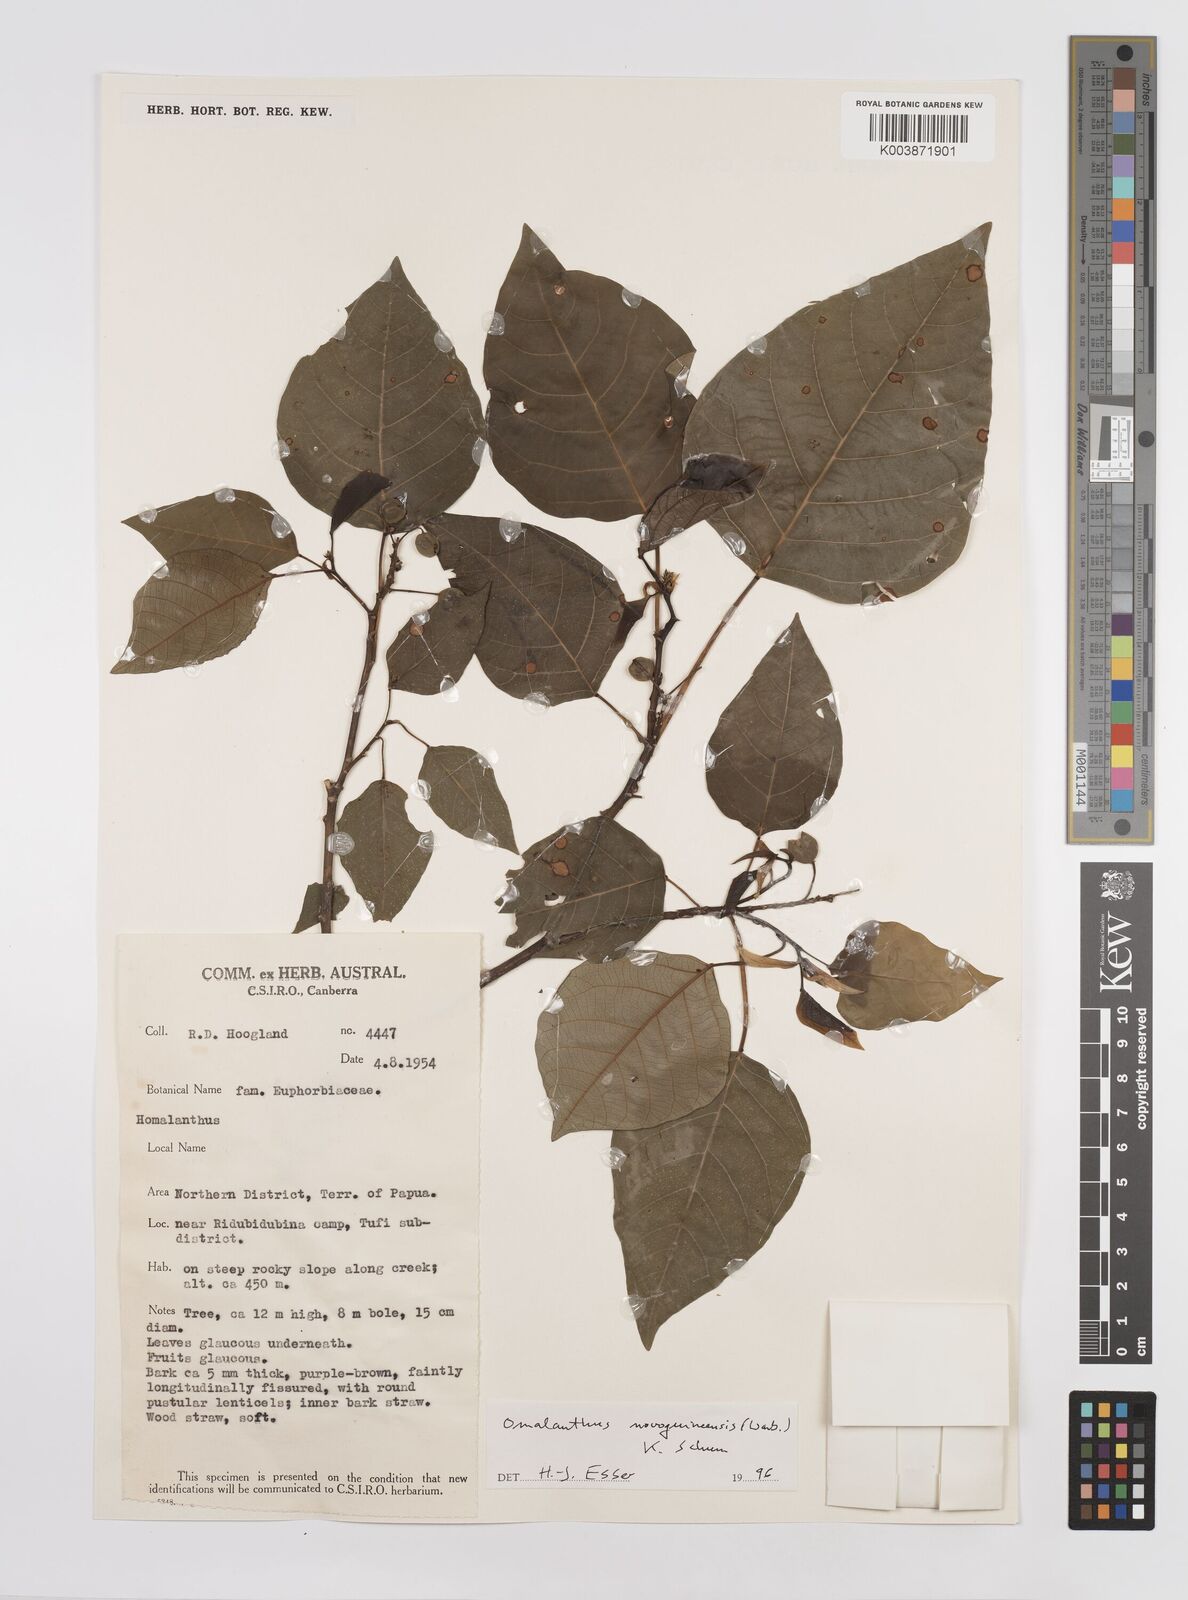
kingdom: Plantae
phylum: Tracheophyta
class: Magnoliopsida
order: Malpighiales
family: Euphorbiaceae
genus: Homalanthus
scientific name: Homalanthus novoguineensis
